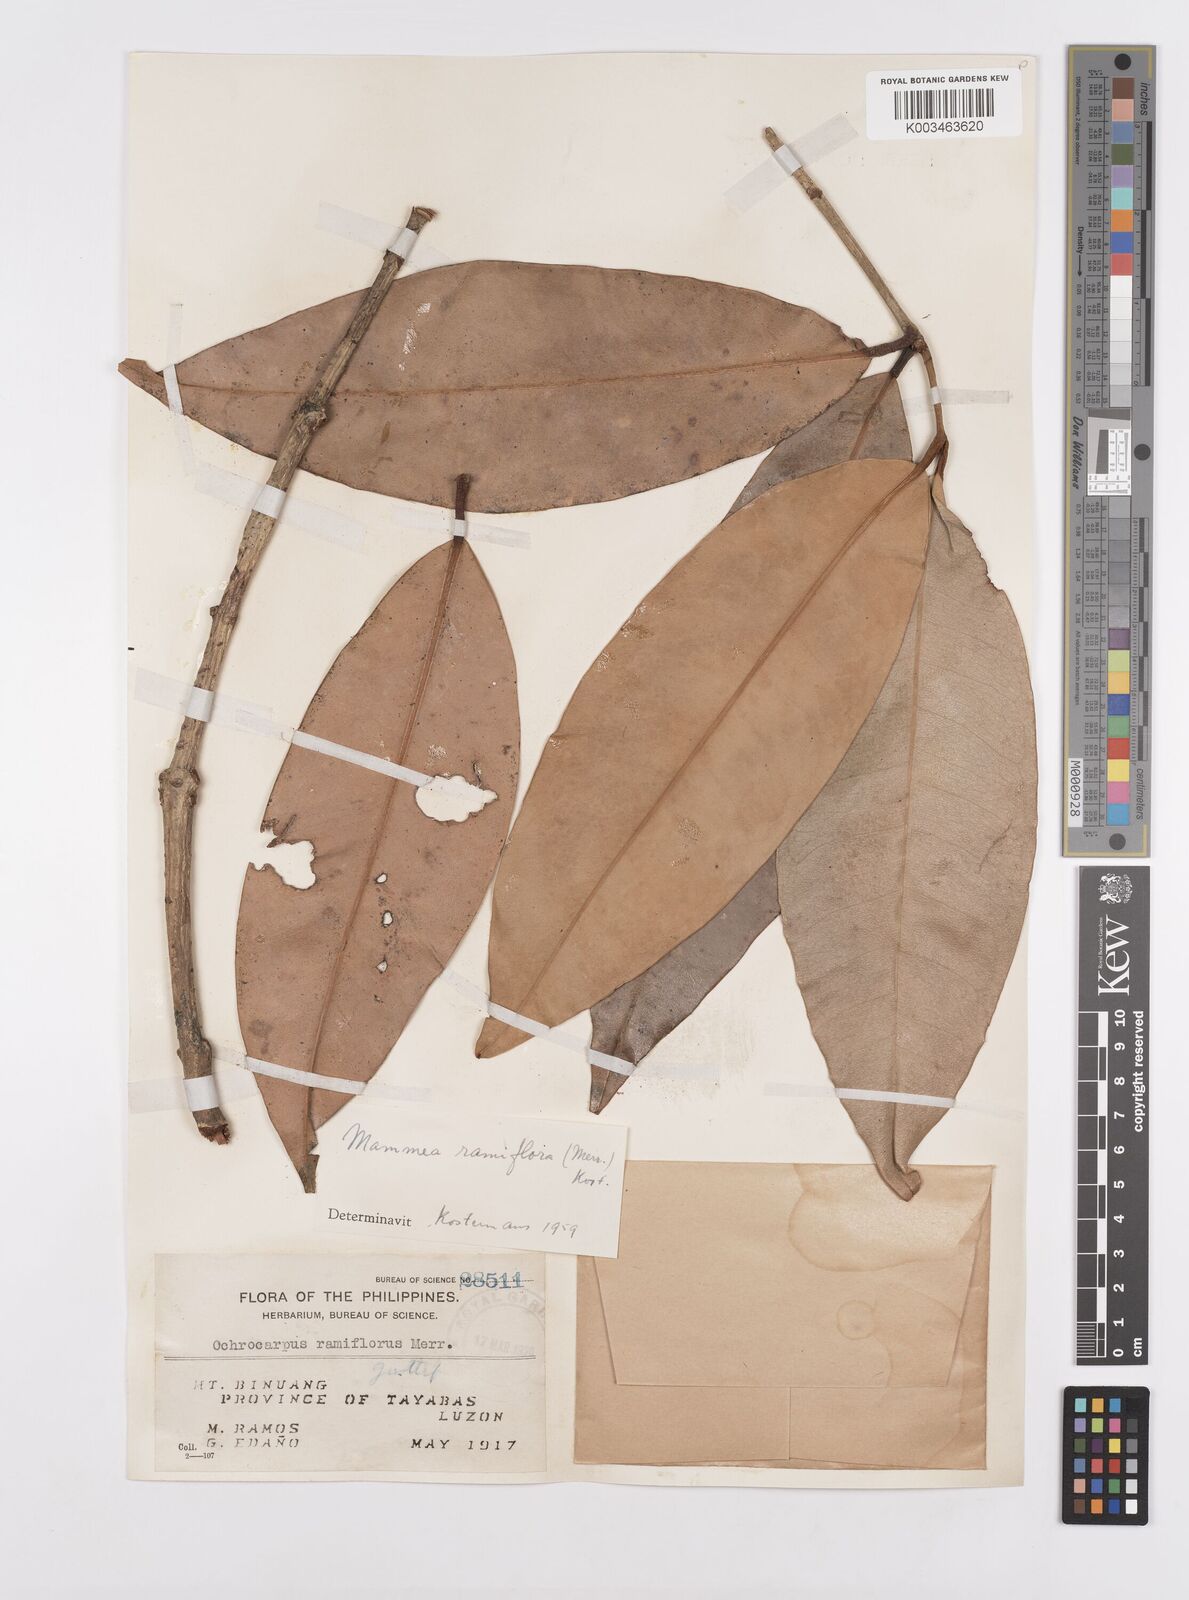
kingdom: Plantae
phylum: Tracheophyta
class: Magnoliopsida
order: Malpighiales
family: Calophyllaceae
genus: Mammea
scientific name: Mammea ramiflora
